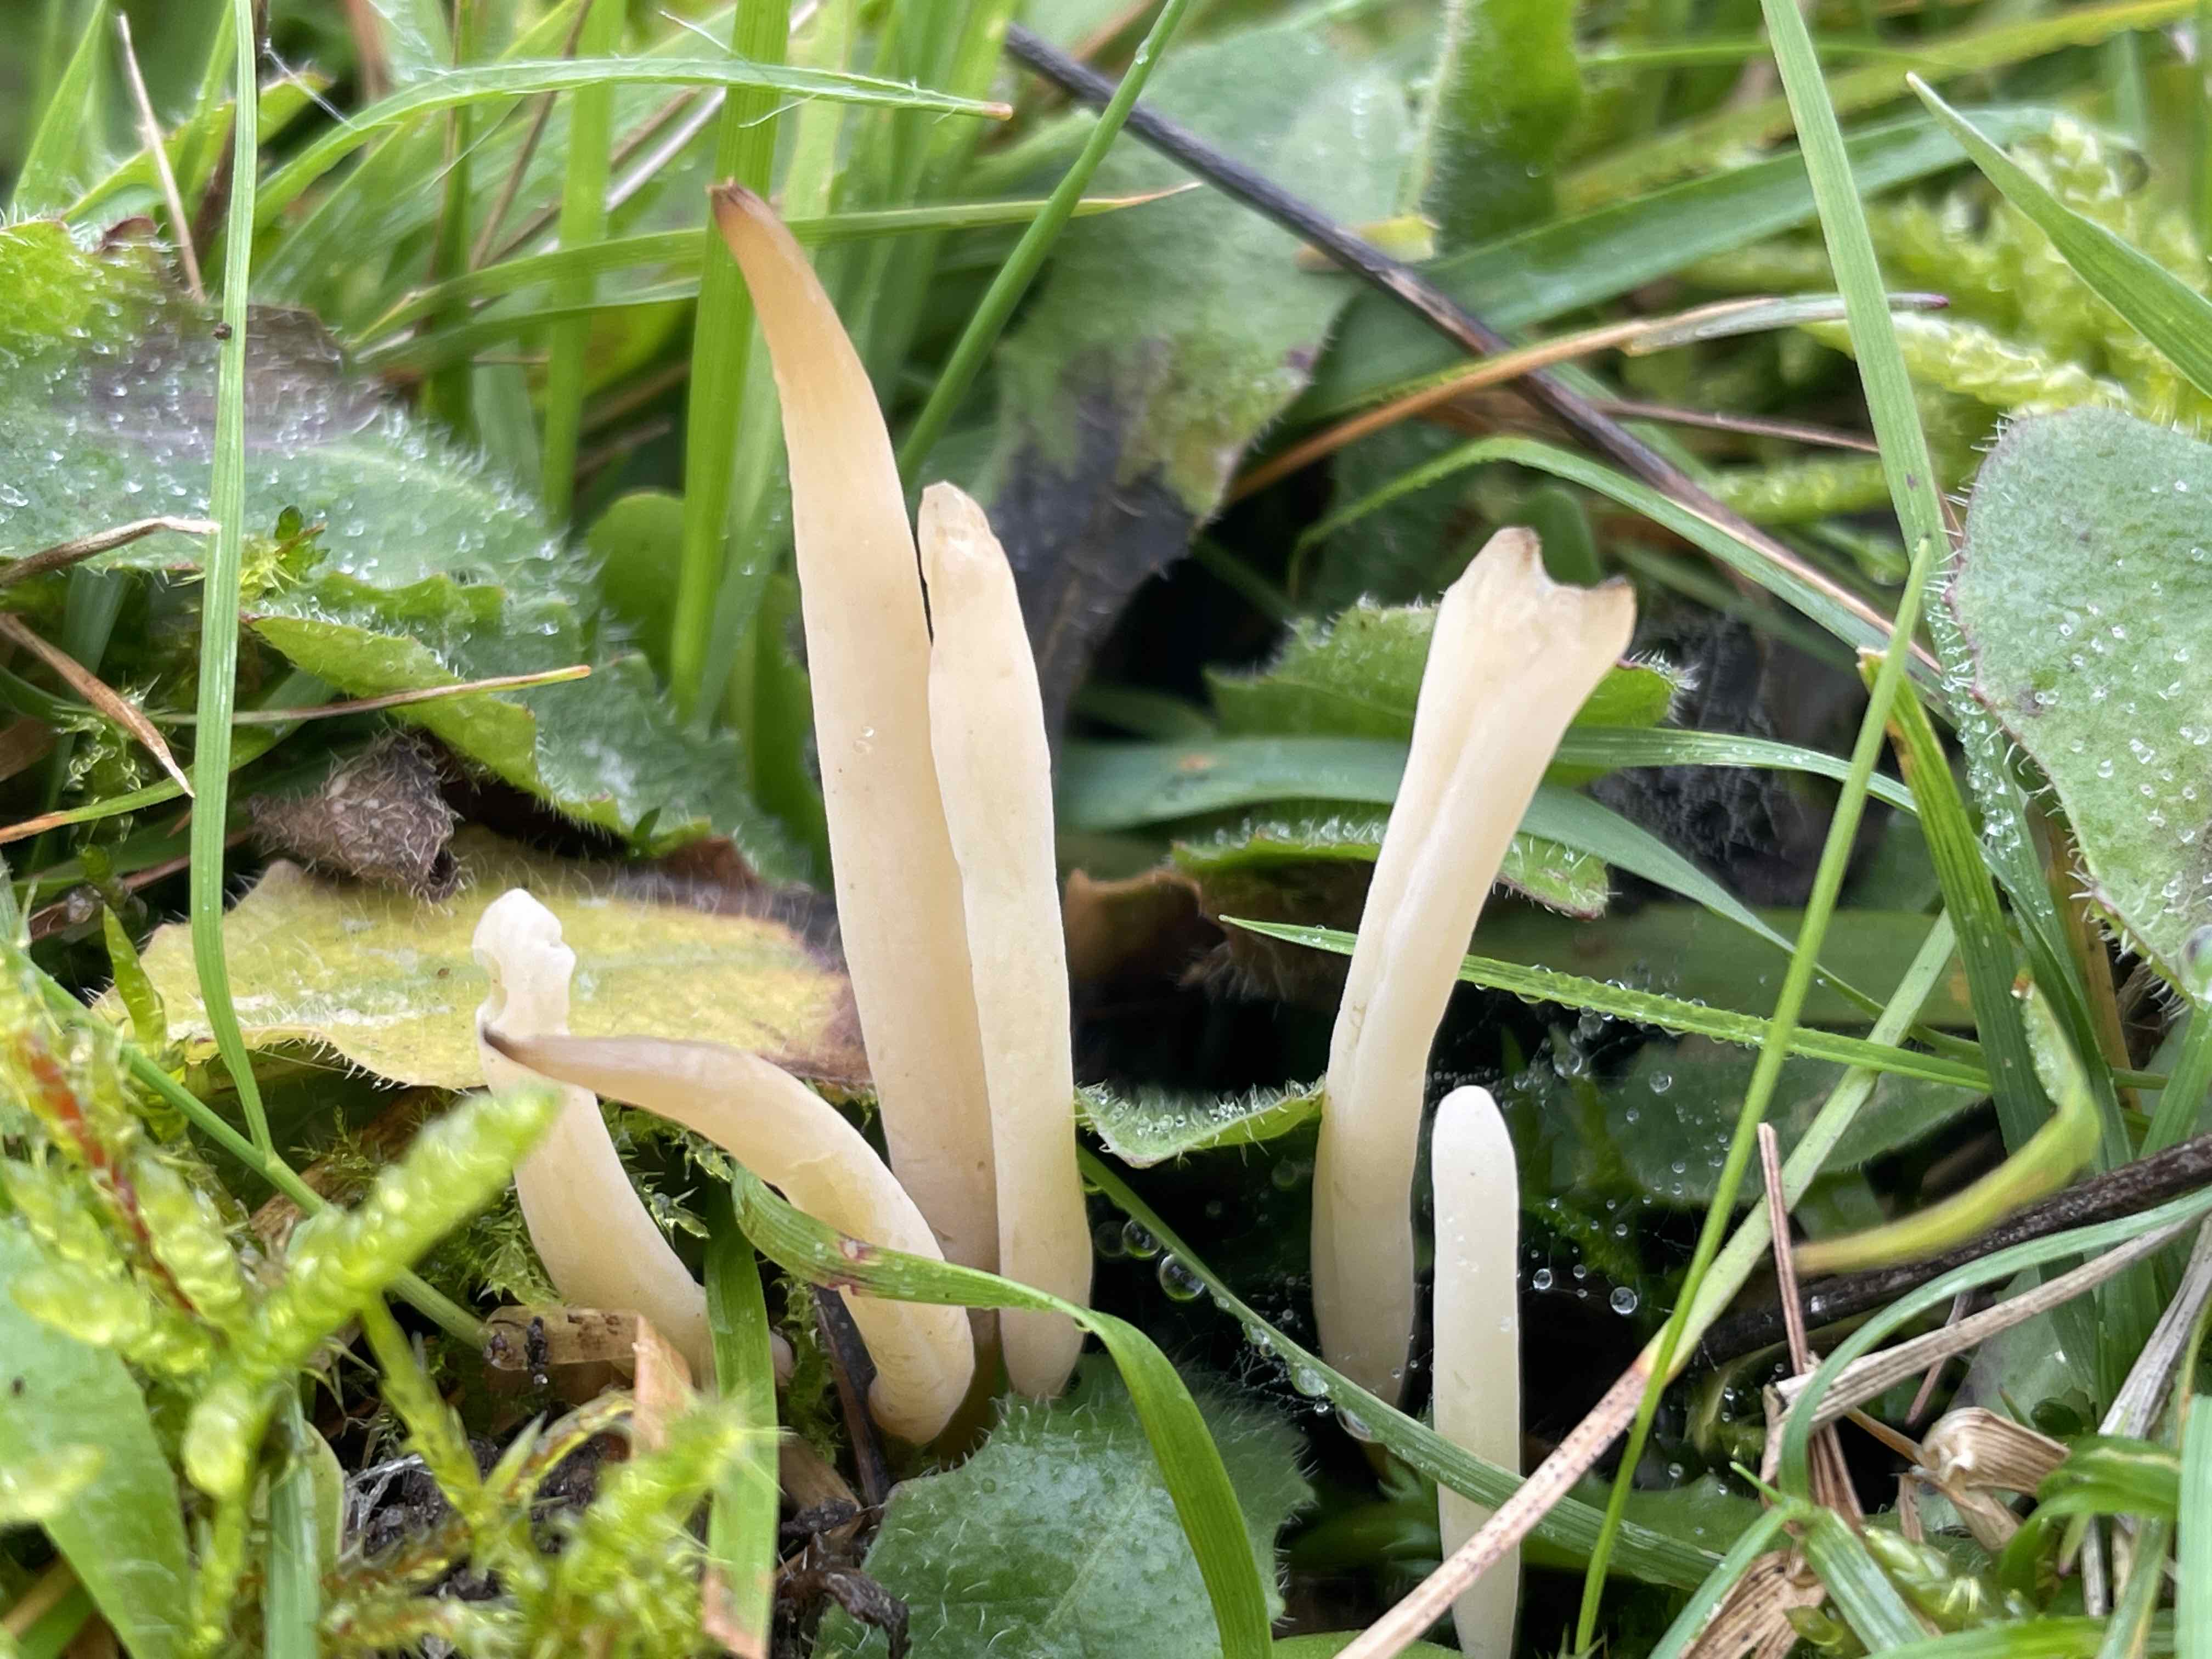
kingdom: Fungi
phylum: Basidiomycota
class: Agaricomycetes
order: Agaricales
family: Clavariaceae
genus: Clavaria
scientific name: Clavaria flavipes
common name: strågul køllesvamp
